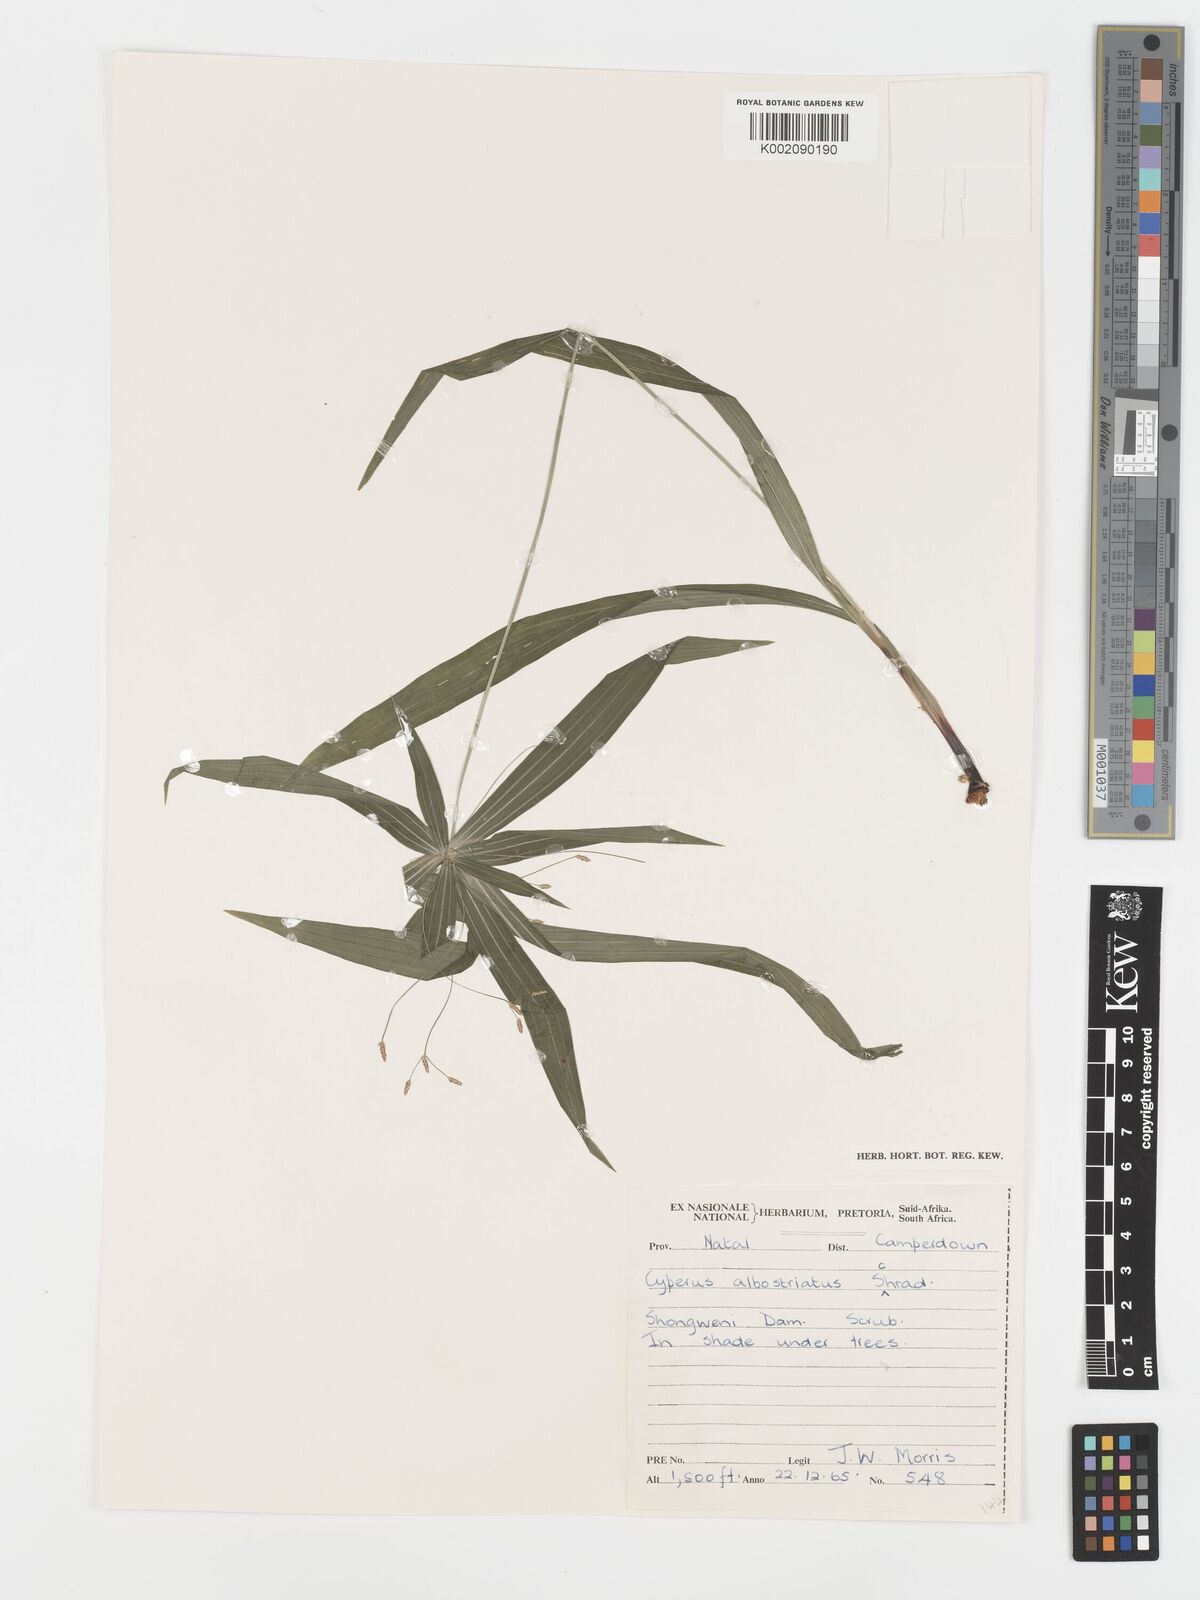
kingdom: Plantae
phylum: Tracheophyta
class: Liliopsida
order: Poales
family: Cyperaceae
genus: Cyperus
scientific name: Cyperus albostriatus
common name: Dwarf umbrella-grass
